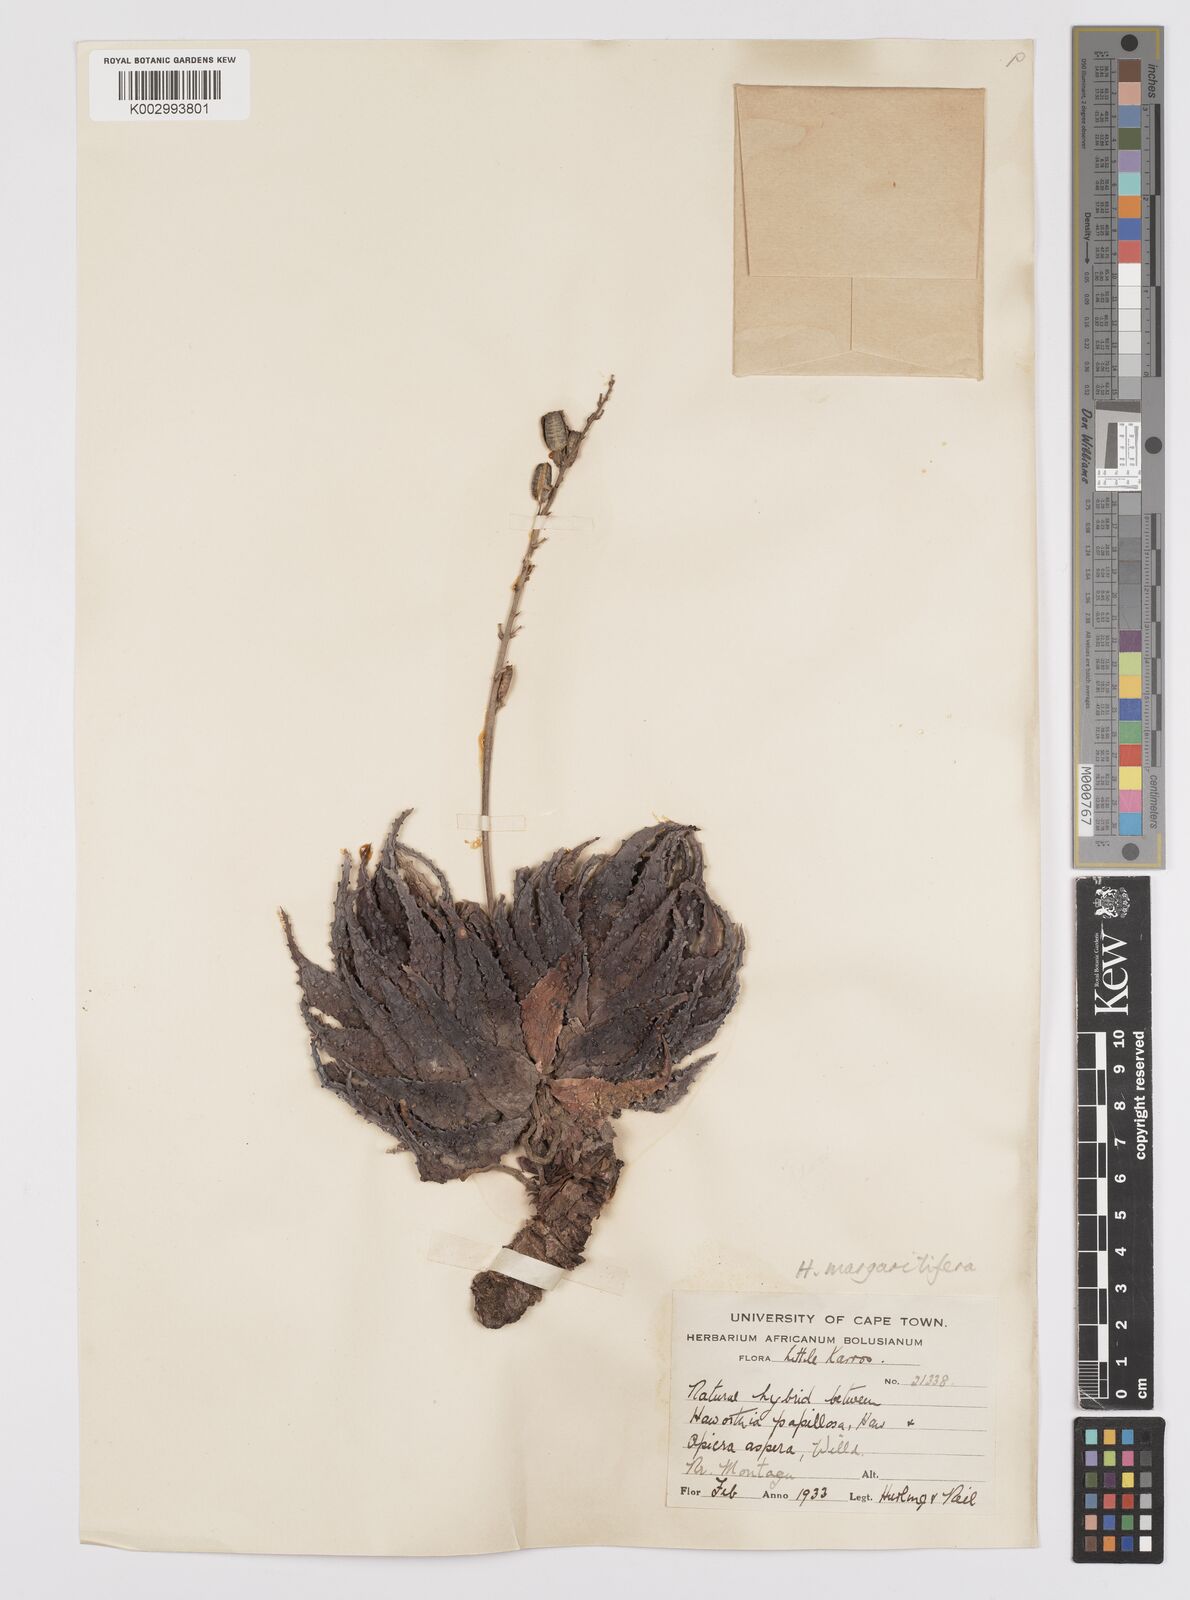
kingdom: Plantae
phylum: Tracheophyta
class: Liliopsida
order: Asparagales
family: Asphodelaceae
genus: Tulista
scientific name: Tulista pumila
